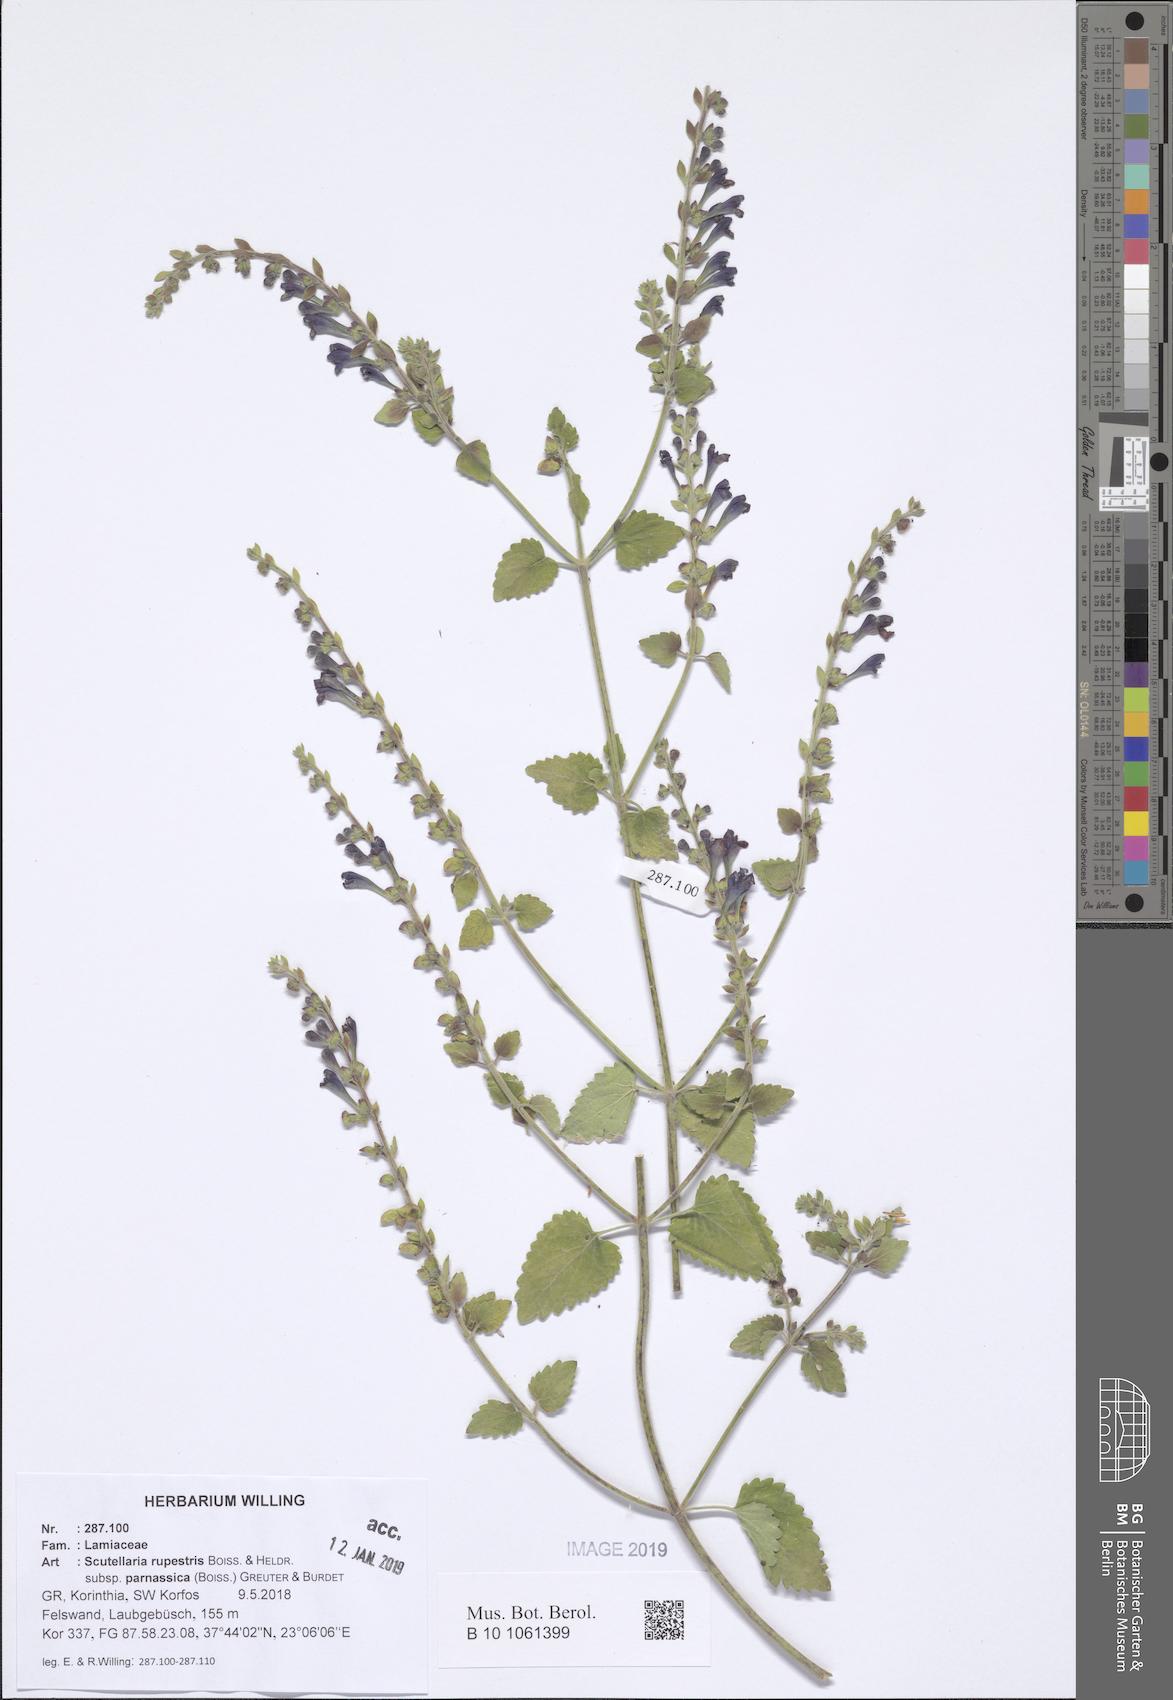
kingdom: Plantae
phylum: Tracheophyta
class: Magnoliopsida
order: Lamiales
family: Lamiaceae
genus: Scutellaria
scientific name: Scutellaria rupestris
